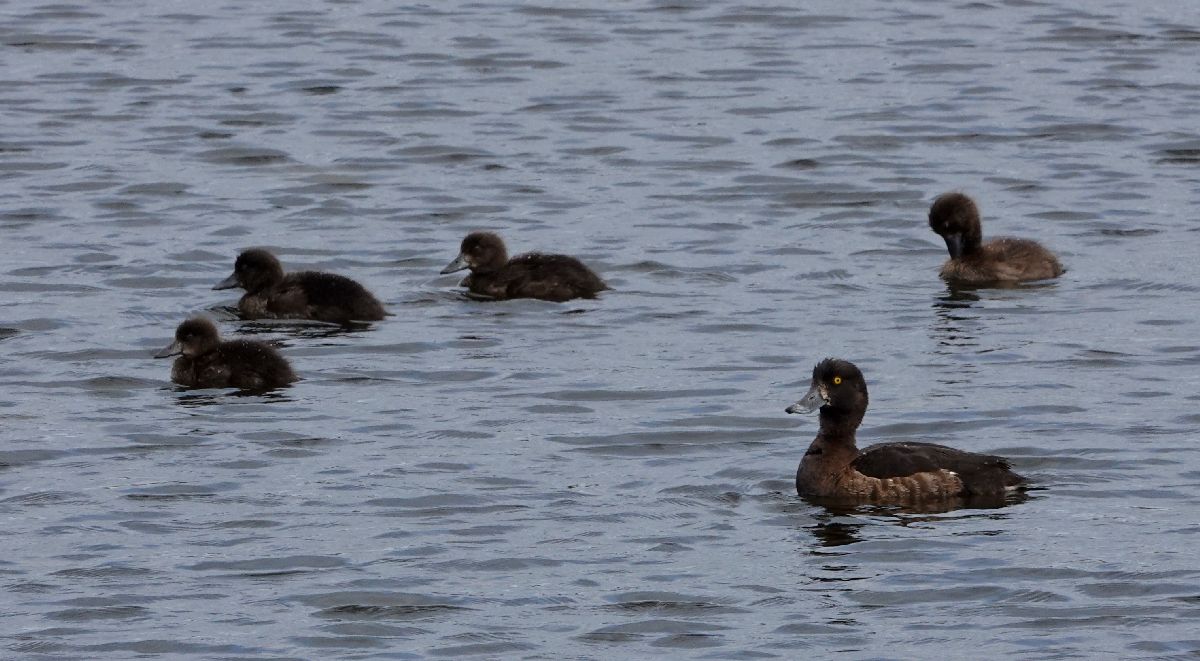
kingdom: Animalia
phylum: Chordata
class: Aves
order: Anseriformes
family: Anatidae
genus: Aythya
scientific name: Aythya fuligula
